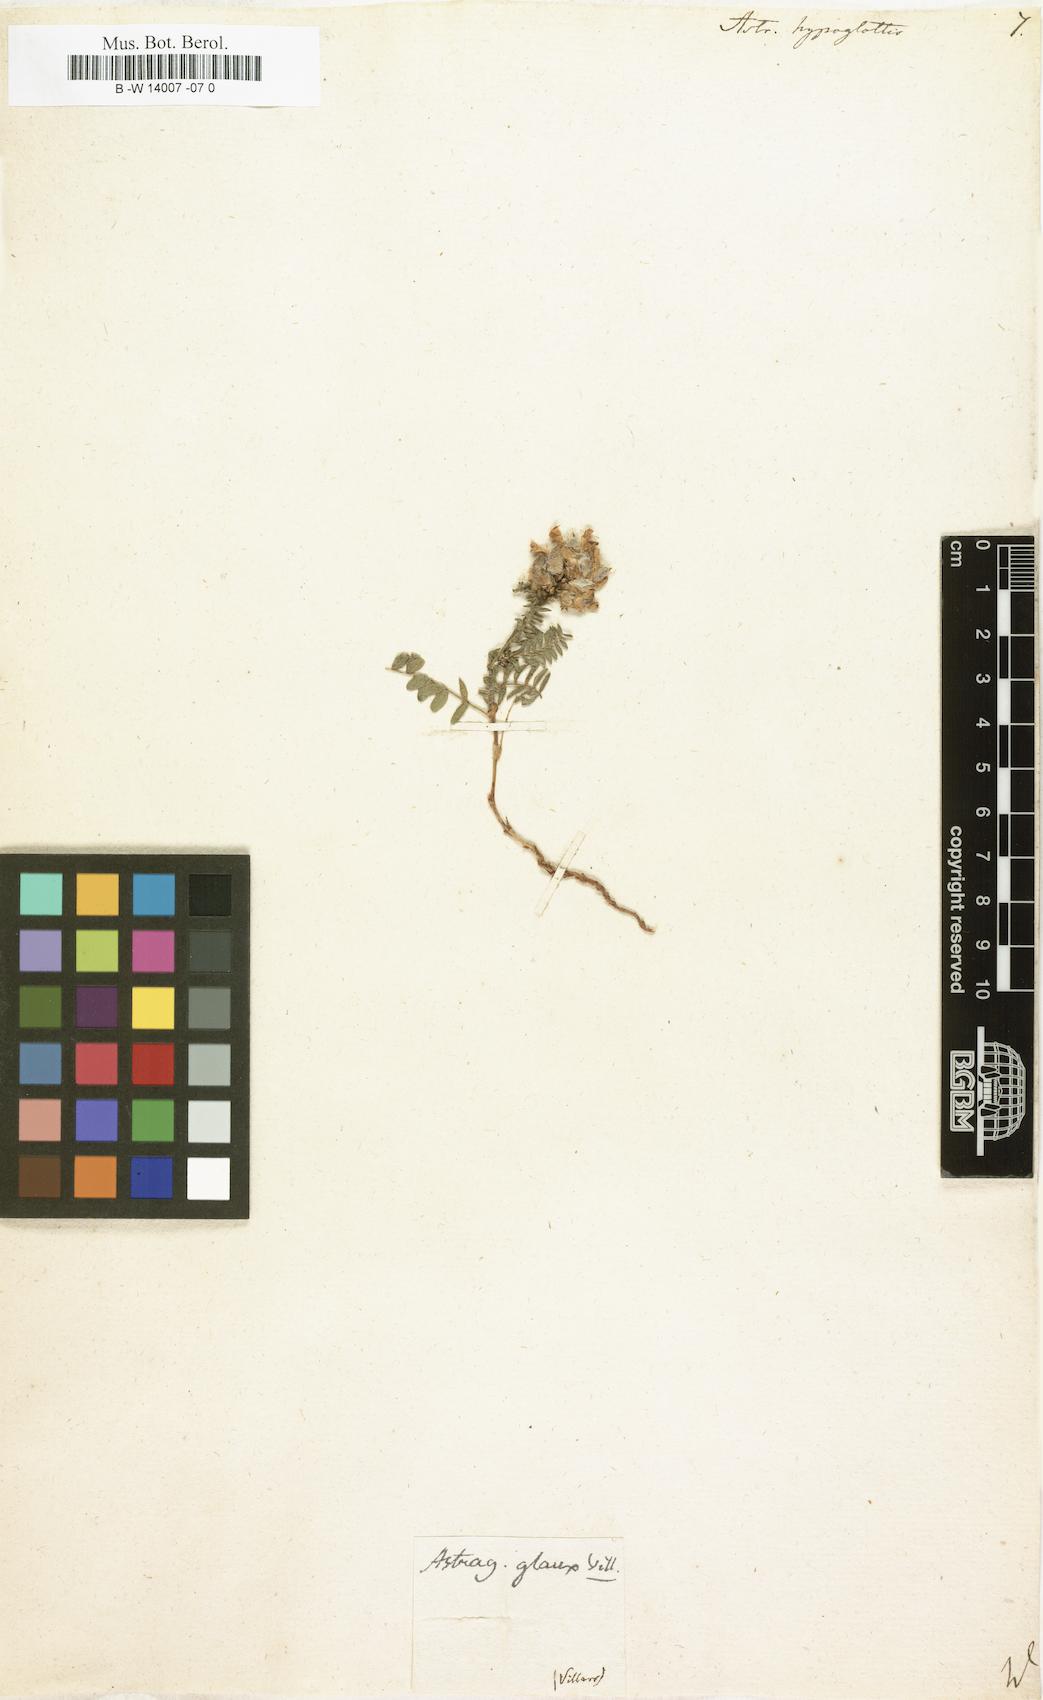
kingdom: Plantae
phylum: Tracheophyta
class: Magnoliopsida
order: Fabales
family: Fabaceae
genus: Astragalus
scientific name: Astragalus hypoglottis
